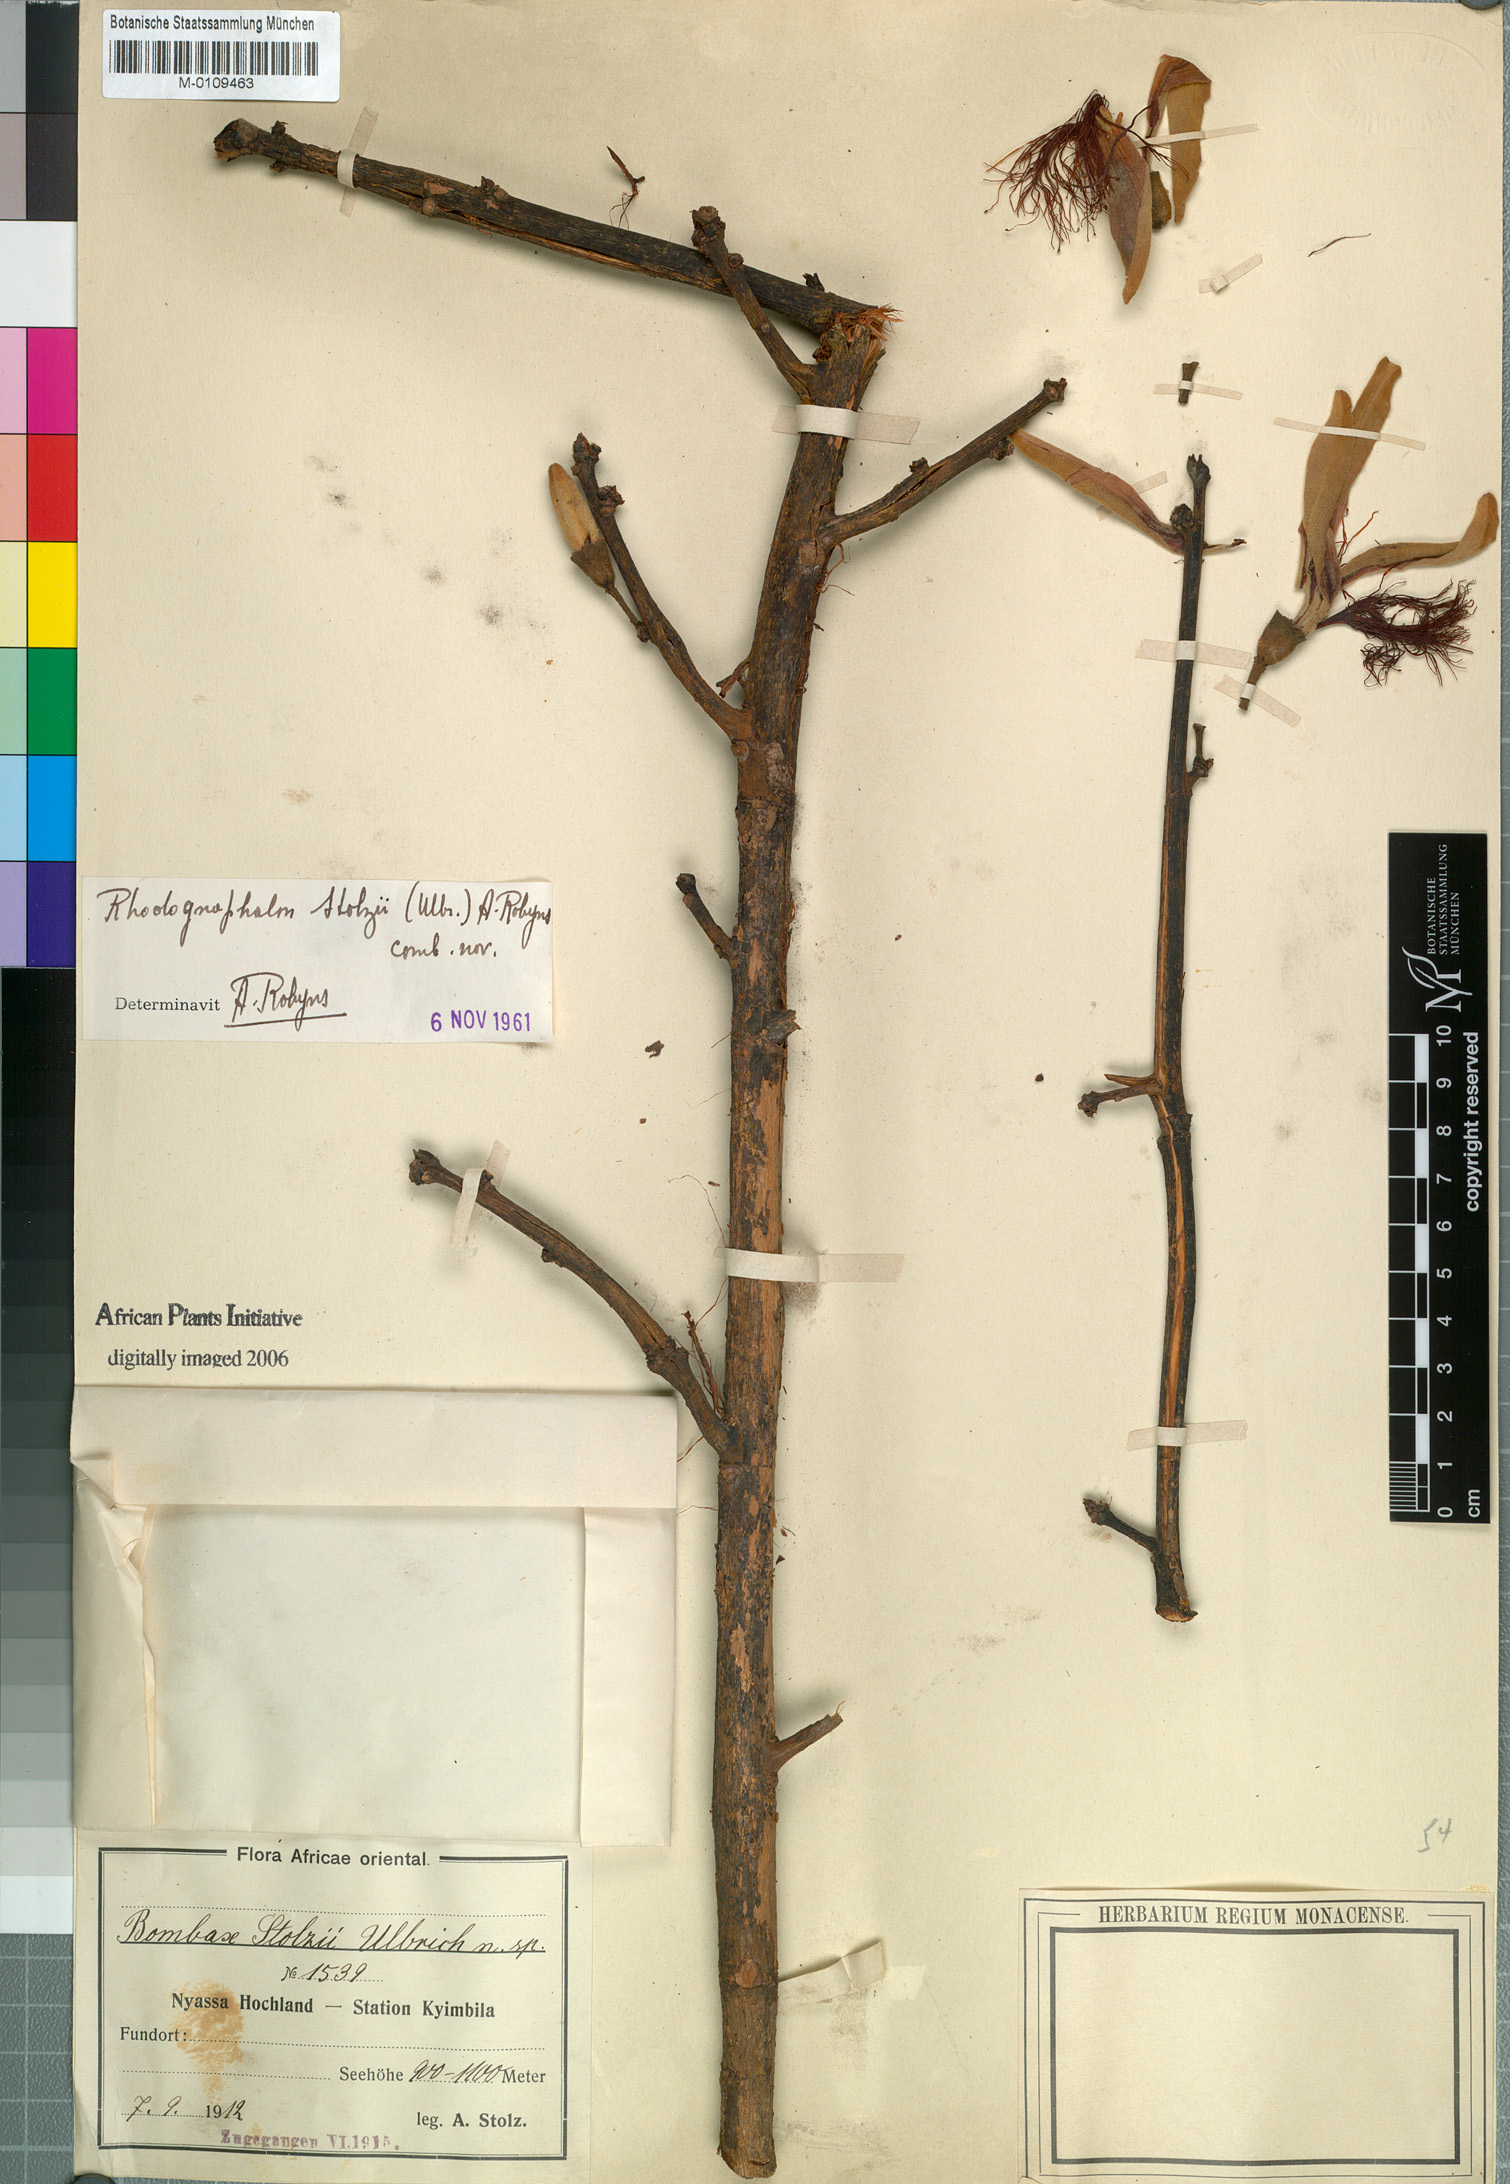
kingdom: Plantae
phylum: Tracheophyta
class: Magnoliopsida
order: Malvales
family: Malvaceae
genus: Rhodognaphalon
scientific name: Rhodognaphalon stolzii
